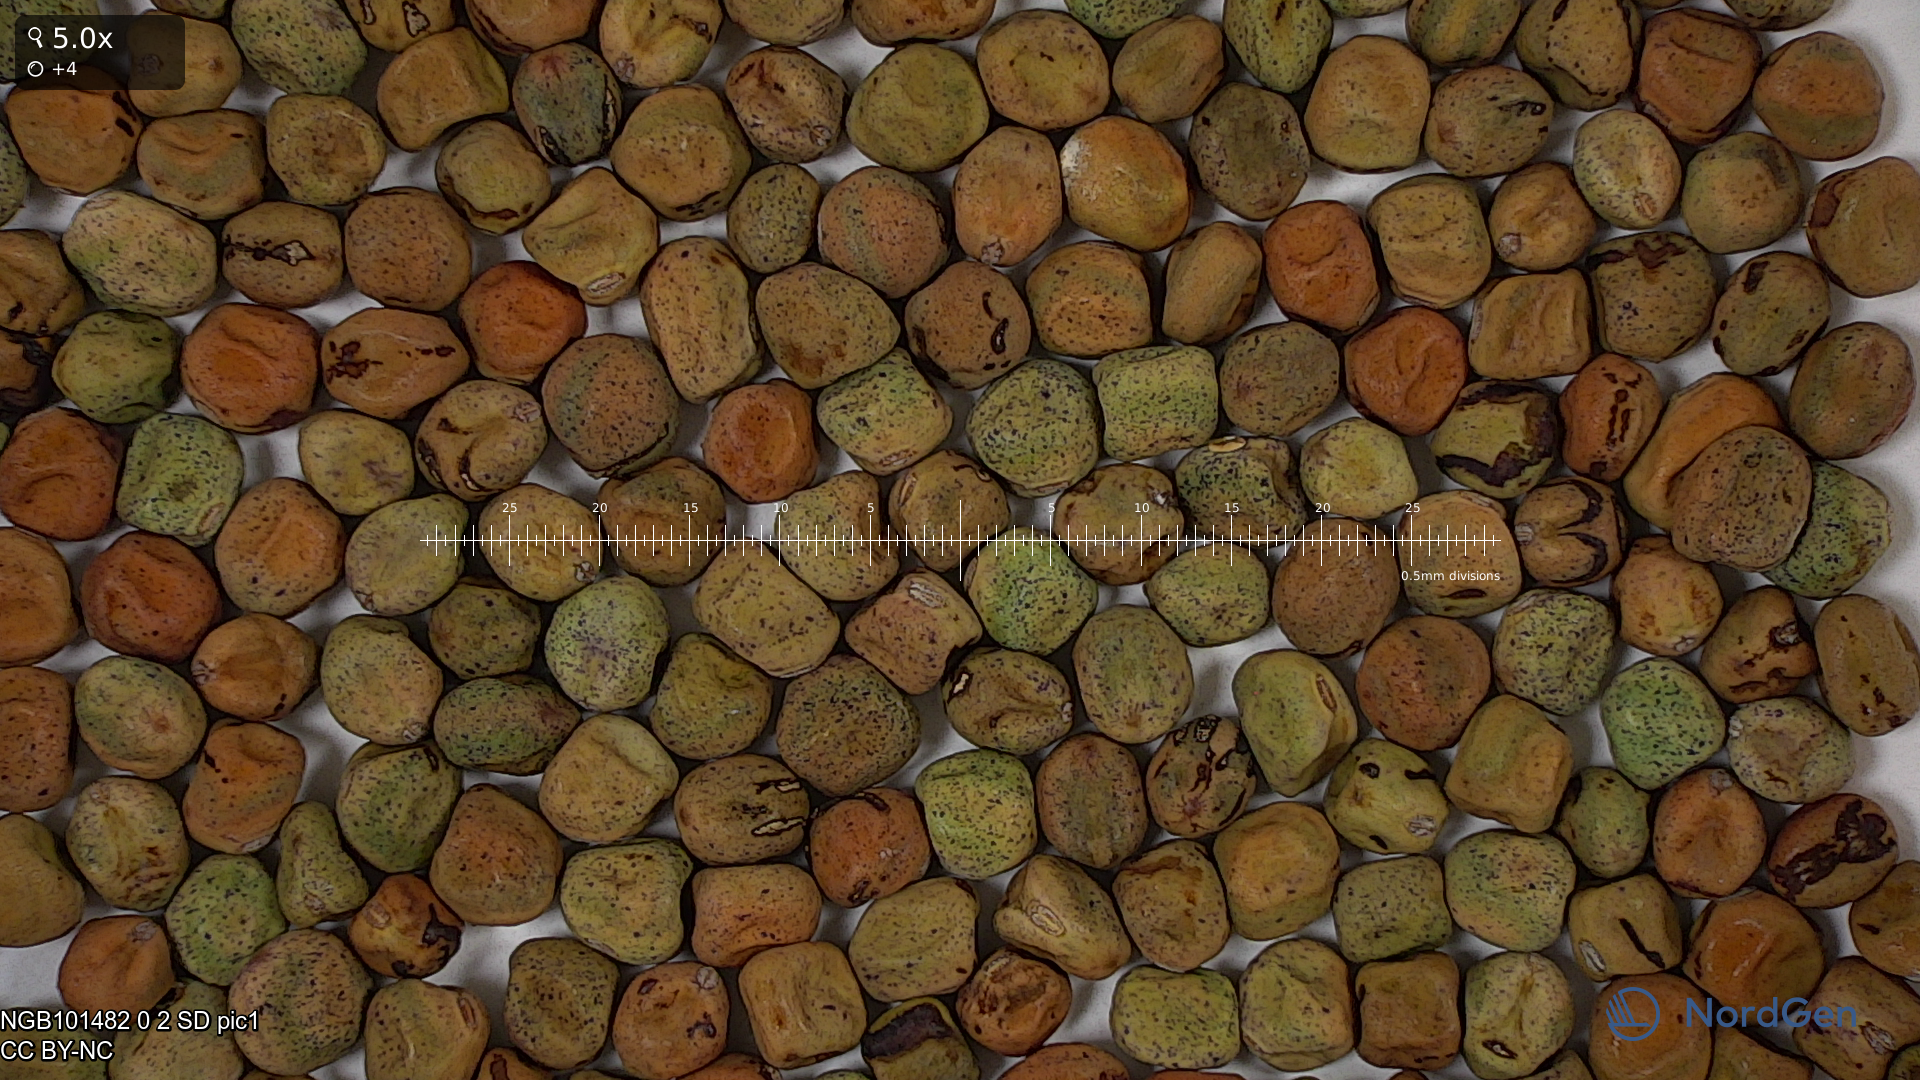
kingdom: Plantae
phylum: Tracheophyta
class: Magnoliopsida
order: Fabales
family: Fabaceae
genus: Lathyrus
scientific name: Lathyrus oleraceus
